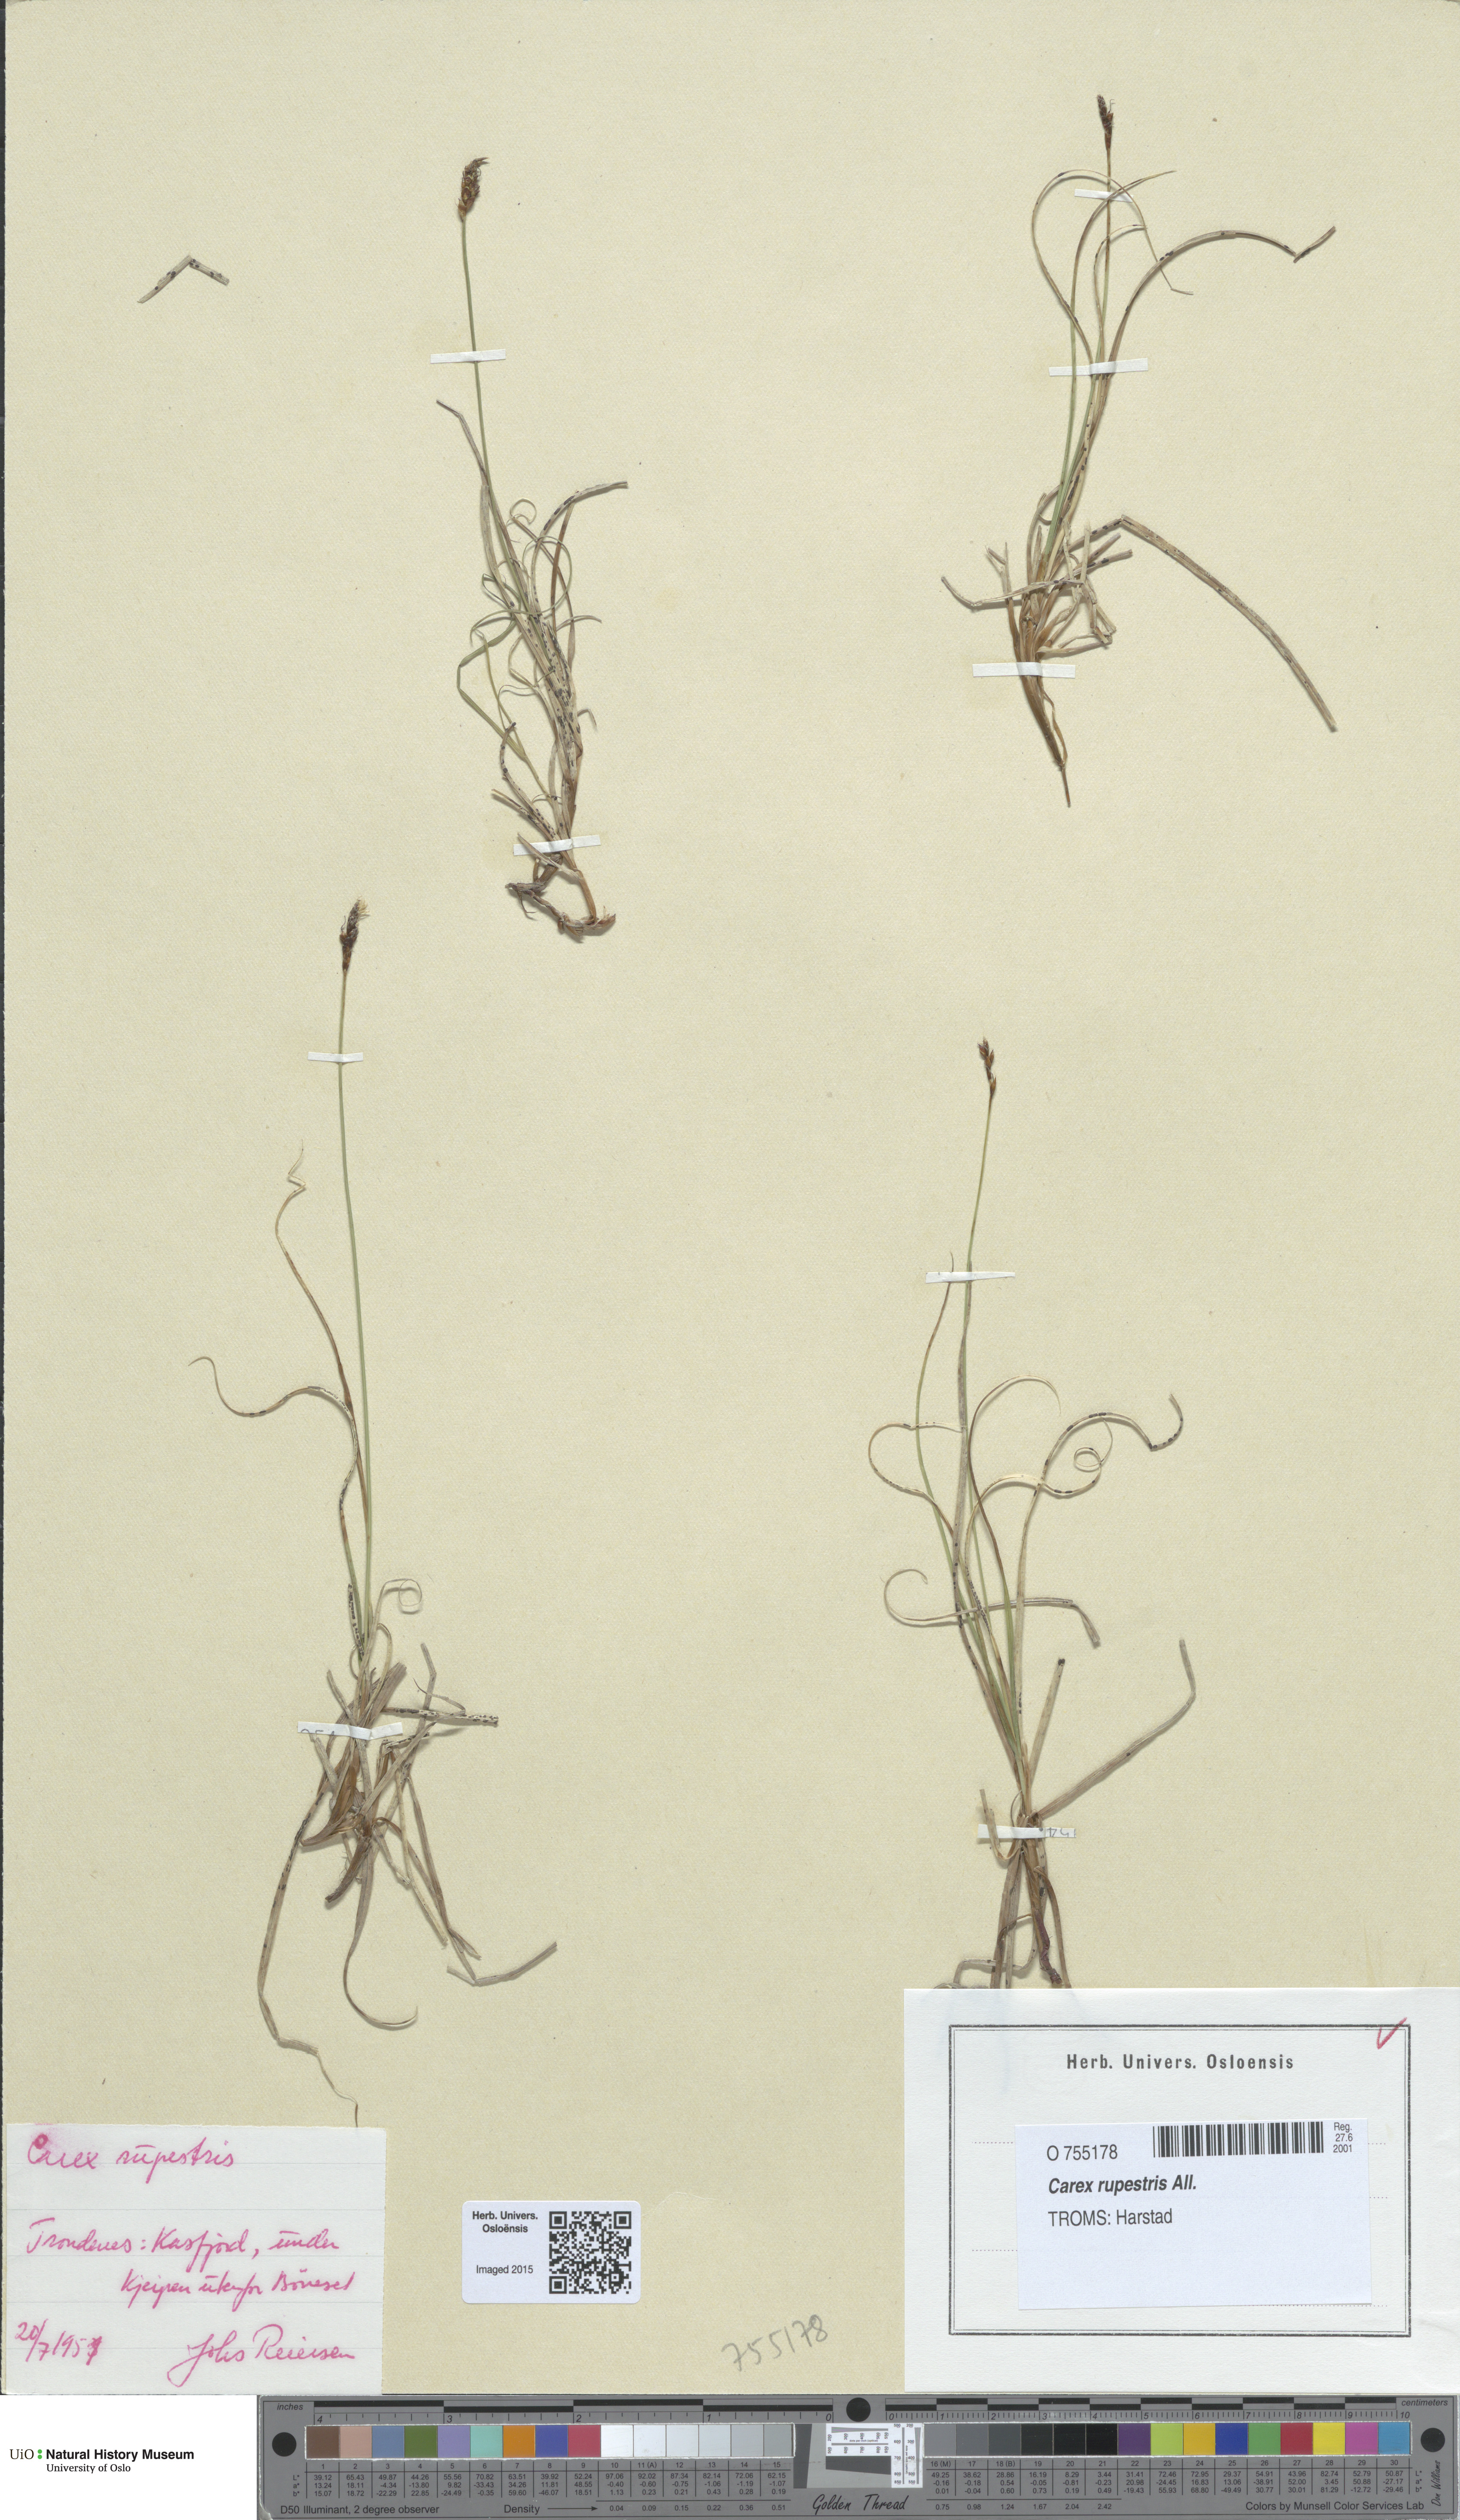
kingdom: Plantae
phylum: Tracheophyta
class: Liliopsida
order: Poales
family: Cyperaceae
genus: Carex
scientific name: Carex rupestris
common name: Rock sedge
